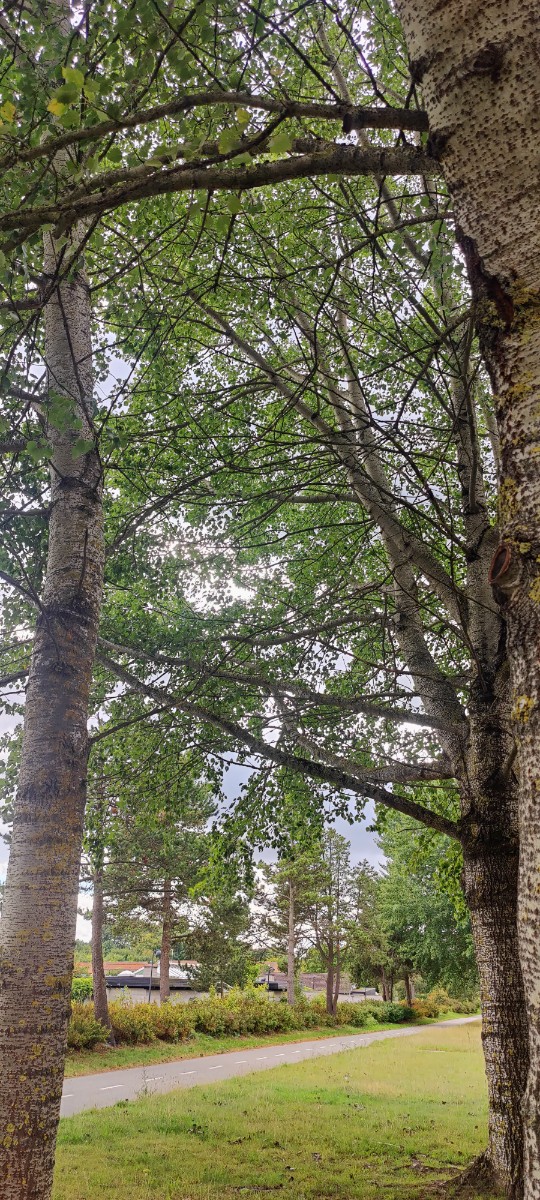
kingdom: Fungi
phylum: Basidiomycota
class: Agaricomycetes
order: Boletales
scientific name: Boletales
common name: rørhatordenen
